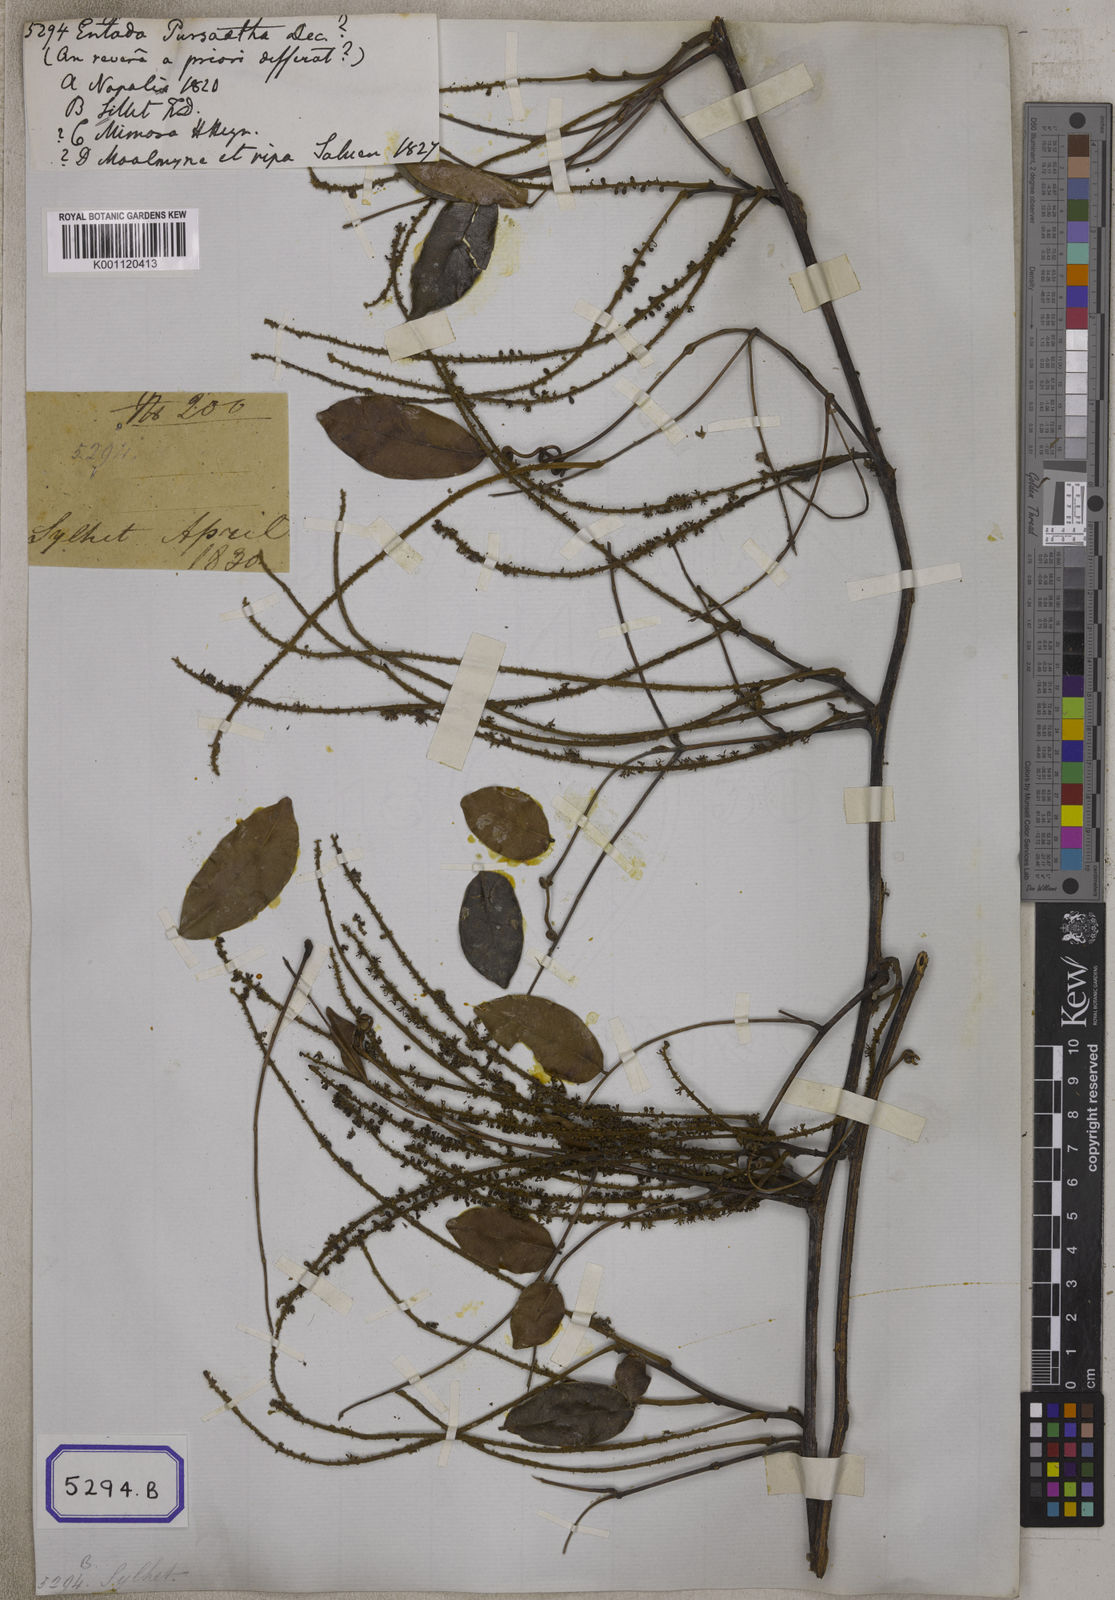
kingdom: Plantae
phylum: Tracheophyta
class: Magnoliopsida
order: Fabales
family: Fabaceae
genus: Entada
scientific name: Entada rheedei
